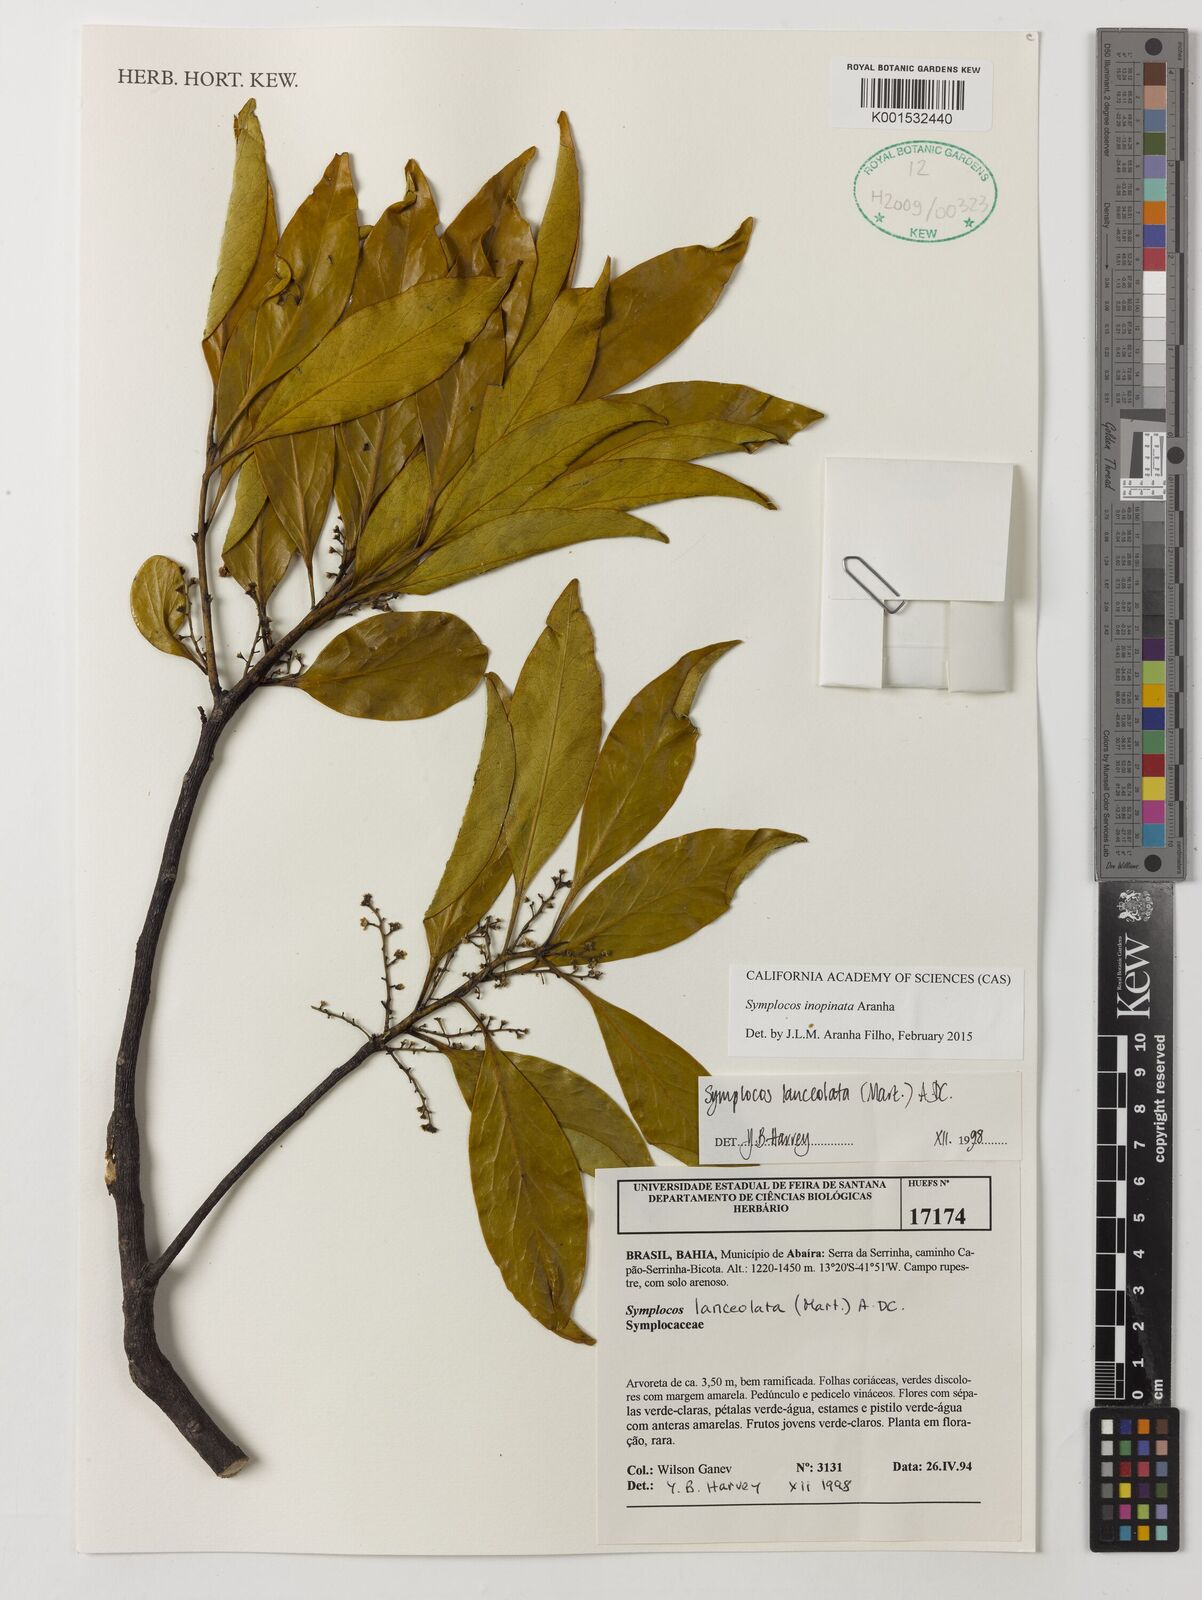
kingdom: Plantae
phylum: Tracheophyta
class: Magnoliopsida
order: Ericales
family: Symplocaceae
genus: Symplocos
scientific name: Symplocos inopinata
